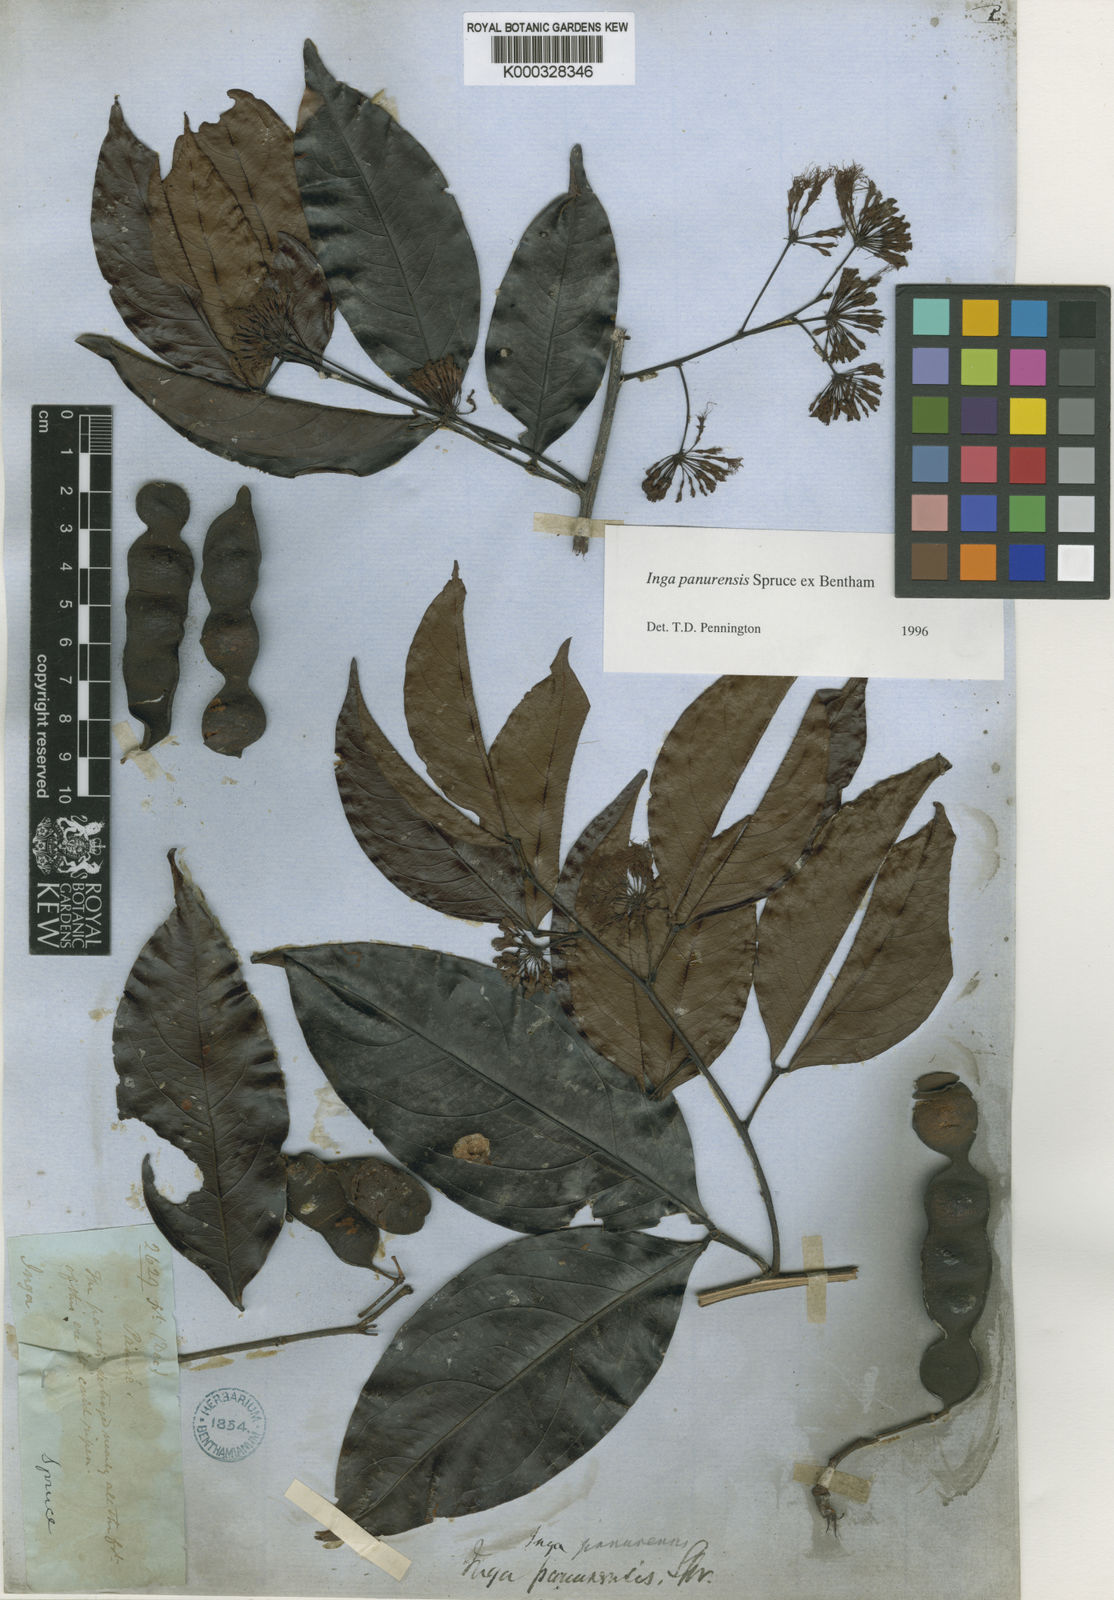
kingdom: Plantae
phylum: Tracheophyta
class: Magnoliopsida
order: Fabales
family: Fabaceae
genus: Inga
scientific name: Inga panurensis
